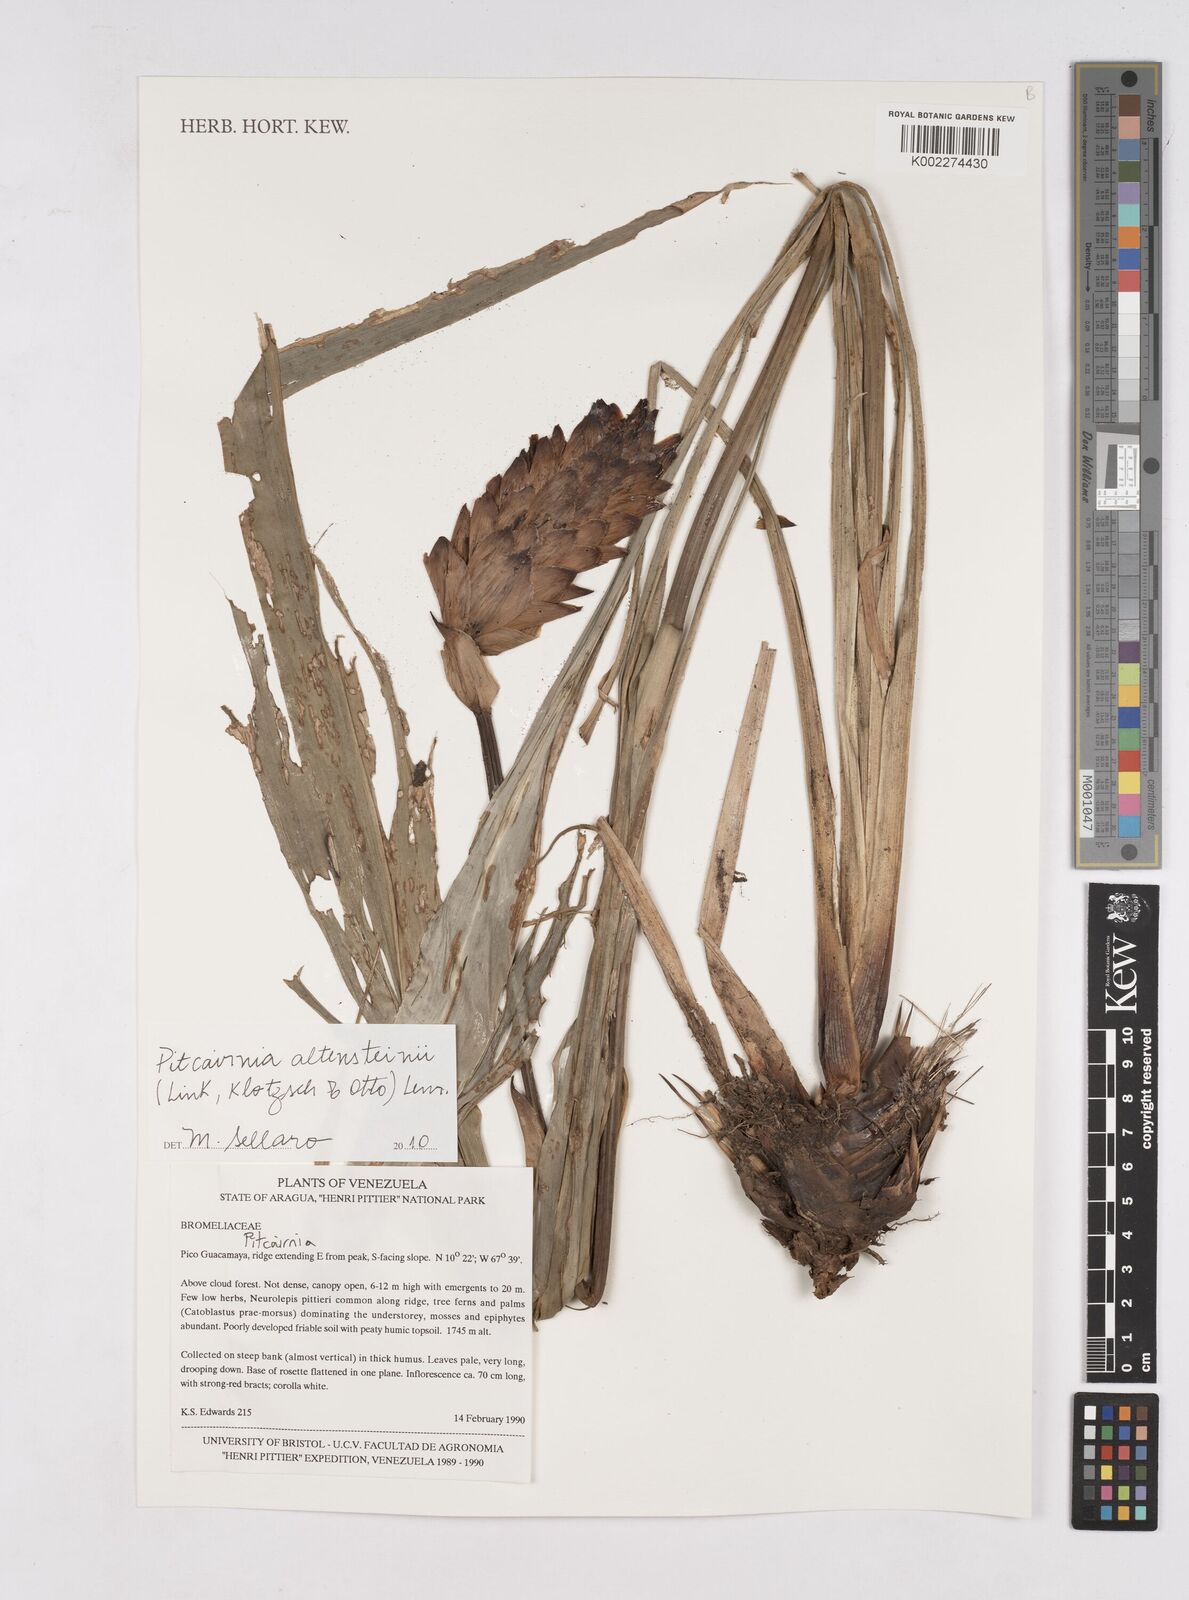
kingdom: Plantae
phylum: Tracheophyta
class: Liliopsida
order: Poales
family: Bromeliaceae
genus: Pitcairnia
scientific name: Pitcairnia altensteinii
